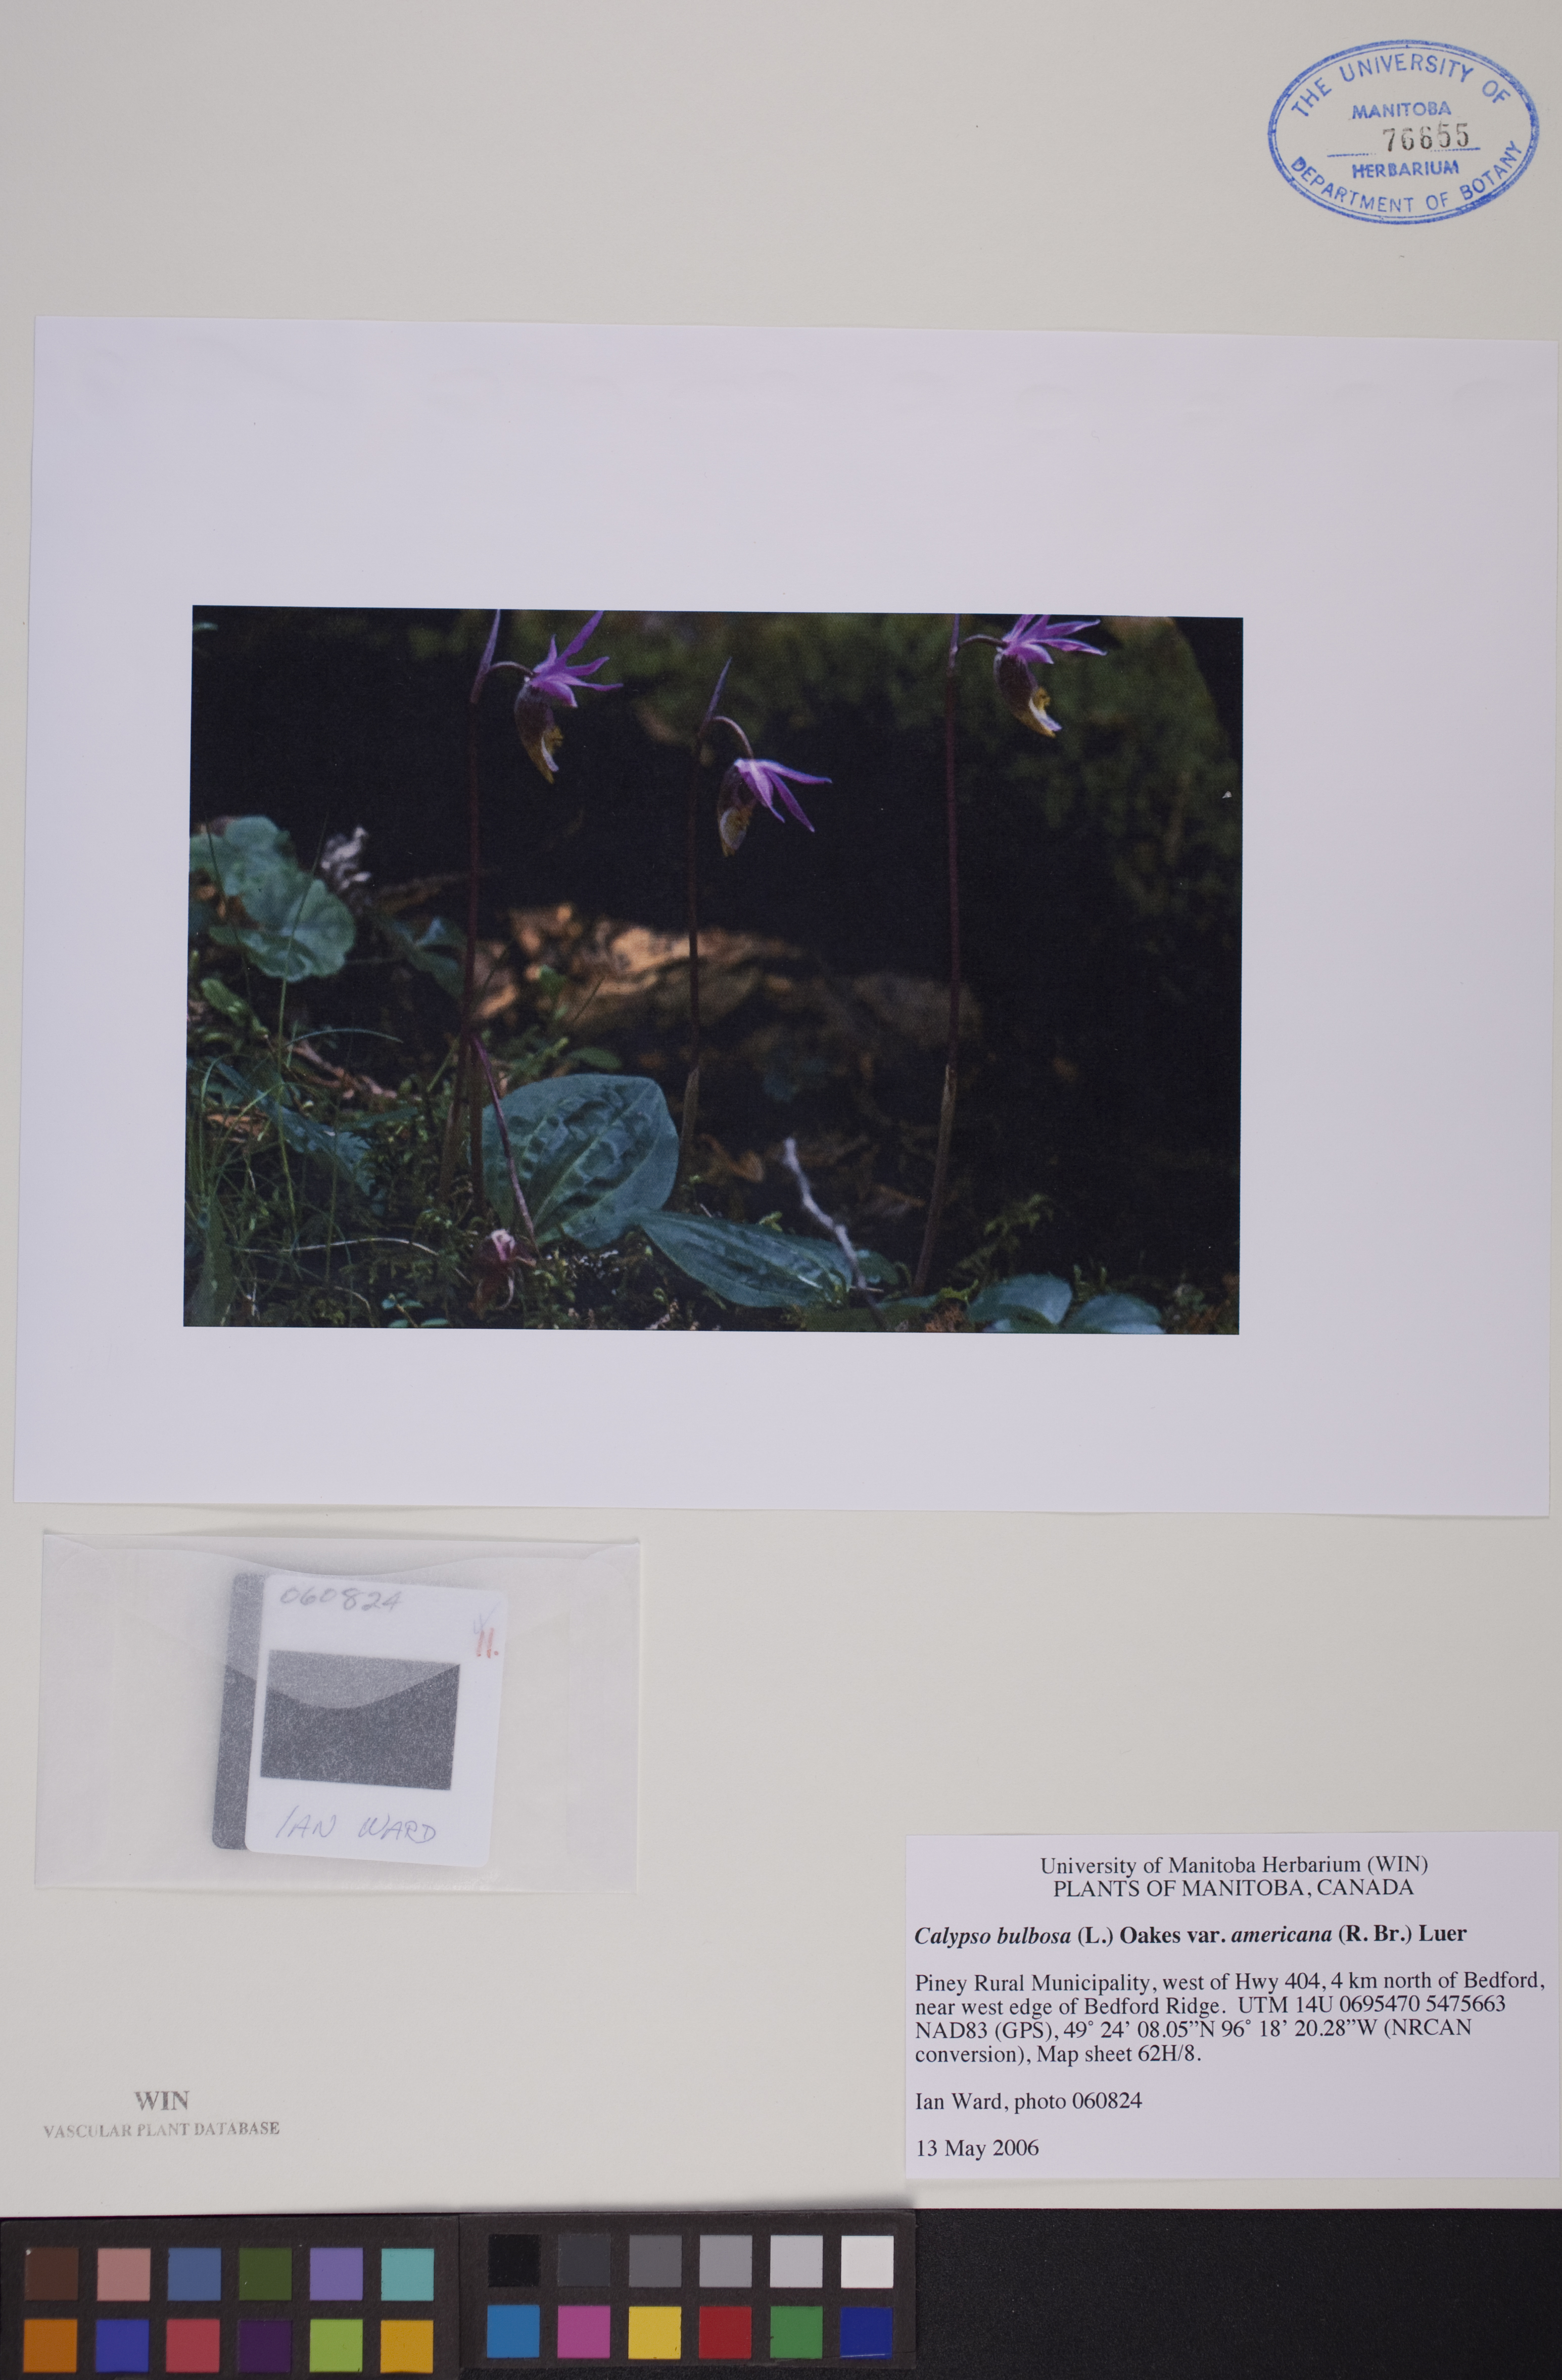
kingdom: Plantae
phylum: Tracheophyta
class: Liliopsida
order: Asparagales
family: Orchidaceae
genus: Calypso
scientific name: Calypso bulbosa
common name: Calypso
